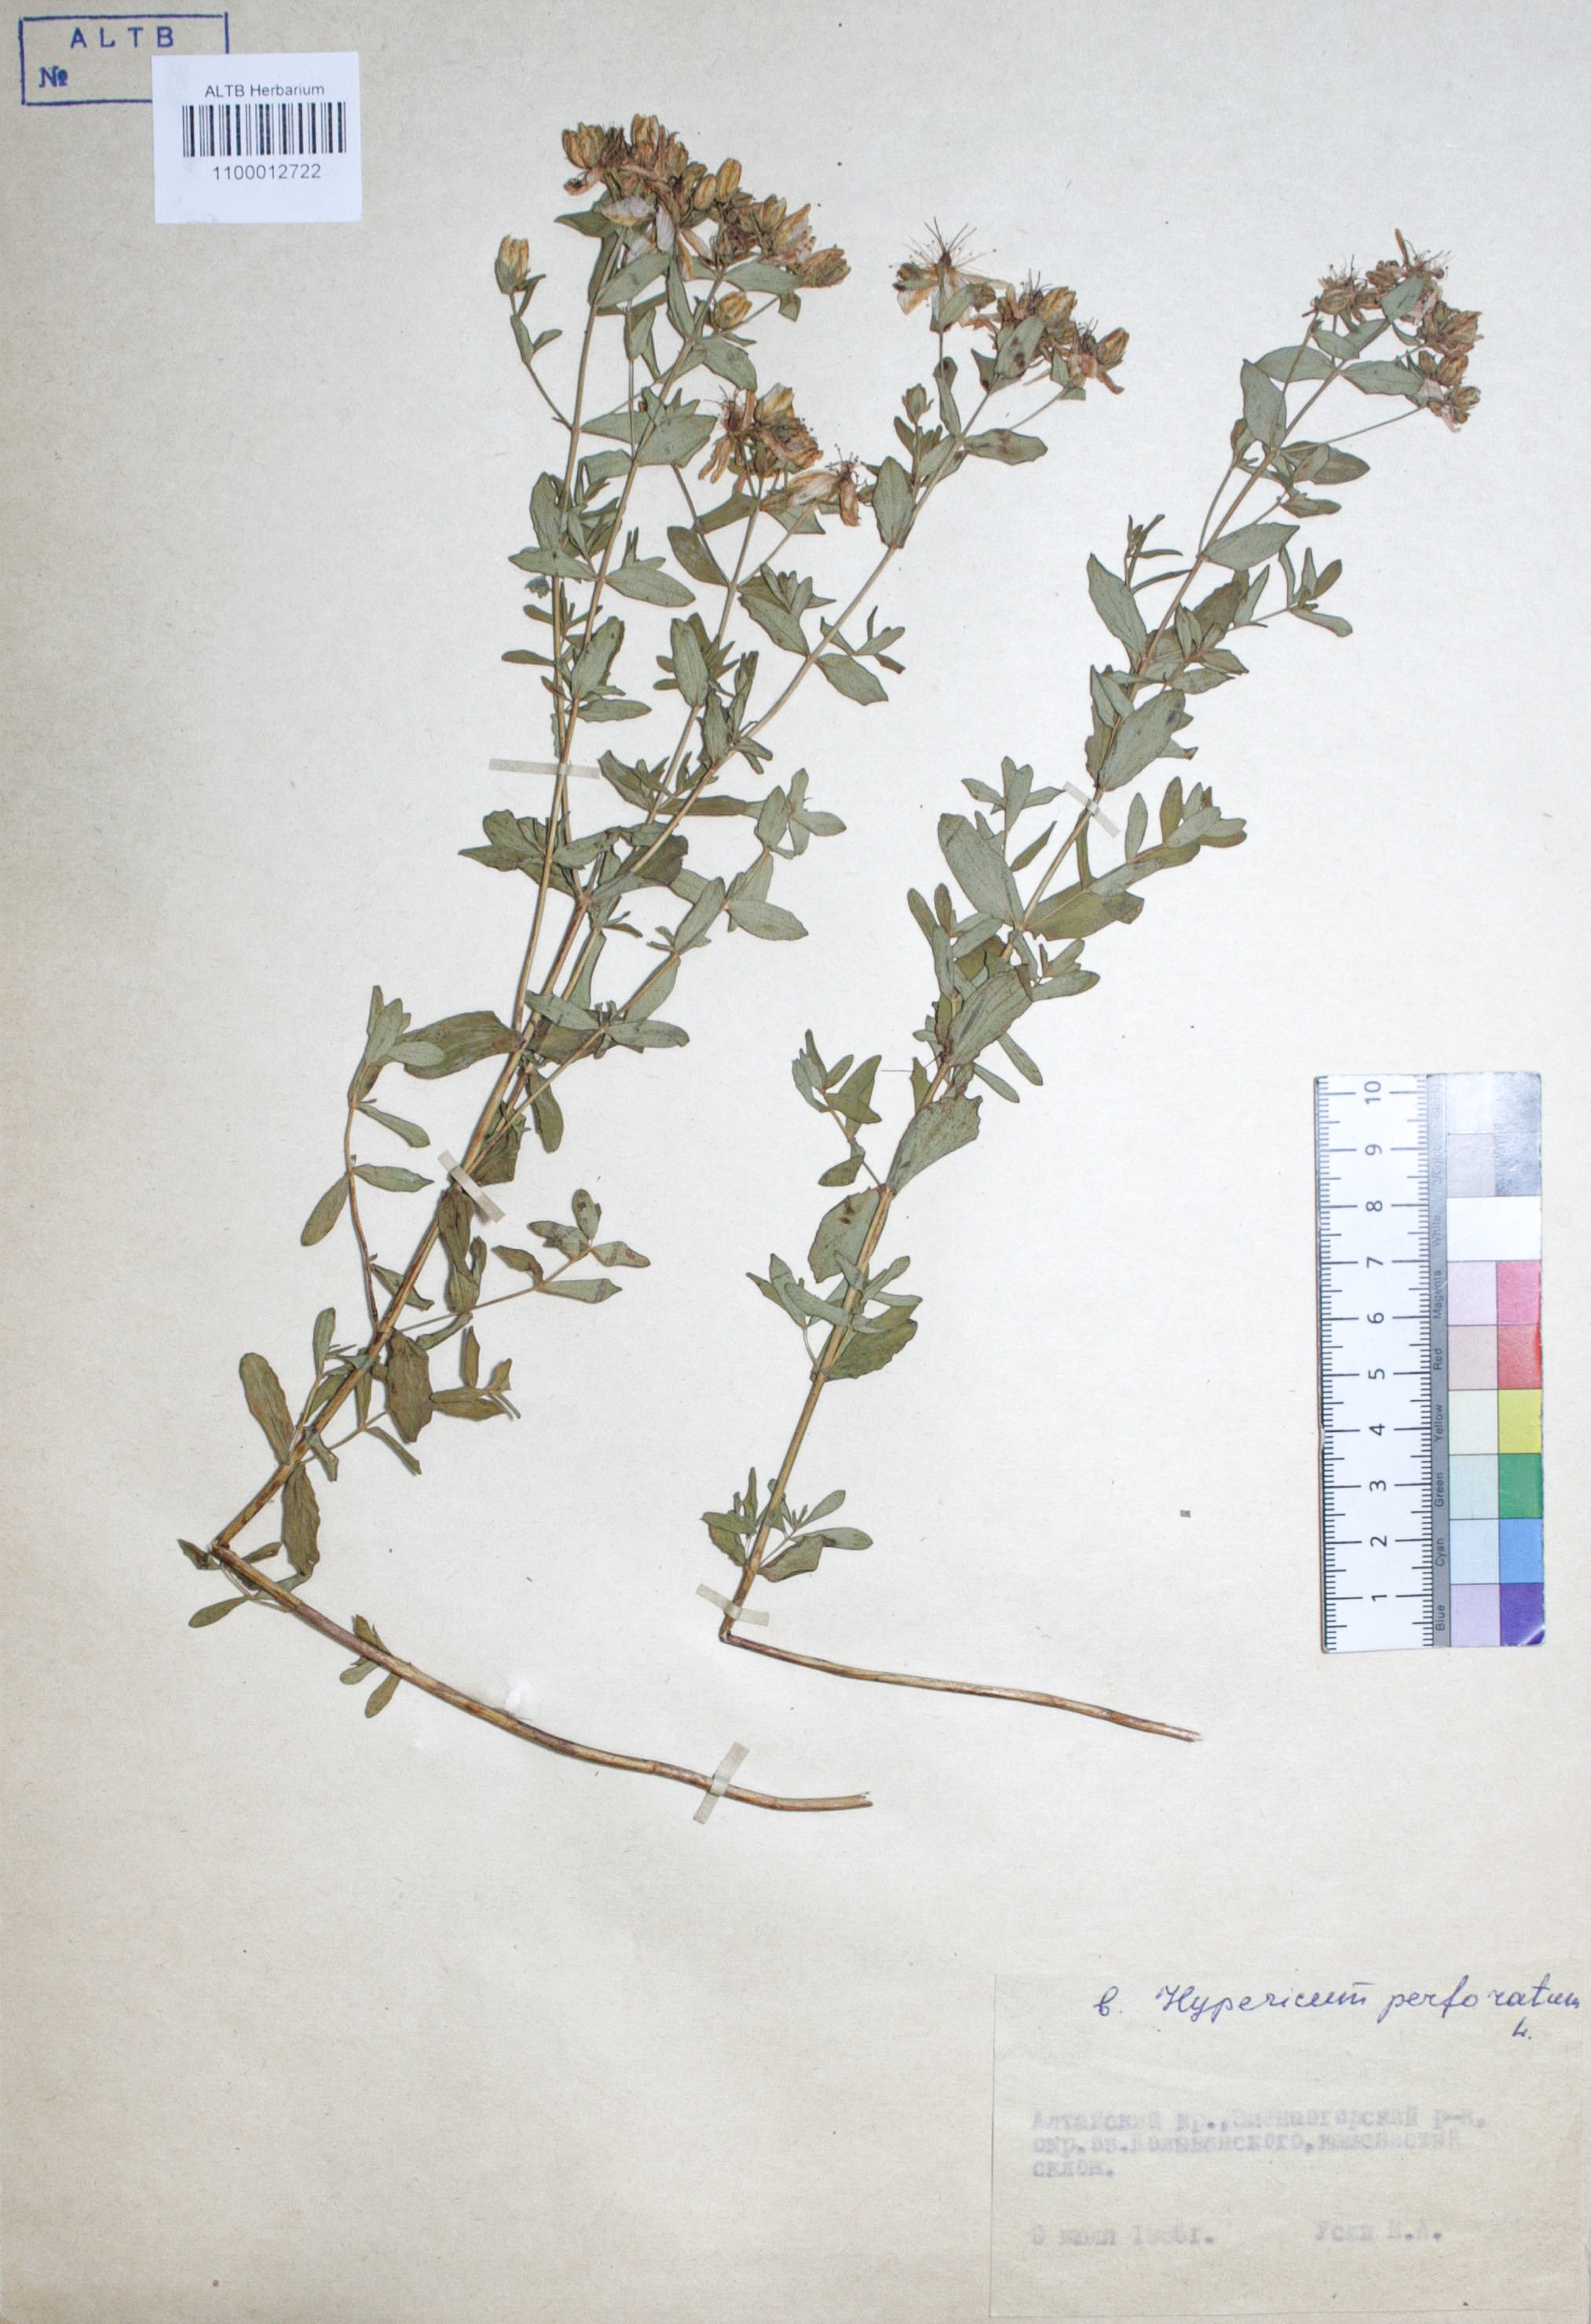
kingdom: Plantae
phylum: Tracheophyta
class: Magnoliopsida
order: Malpighiales
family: Hypericaceae
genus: Hypericum
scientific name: Hypericum perforatum
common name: Common st. johnswort
